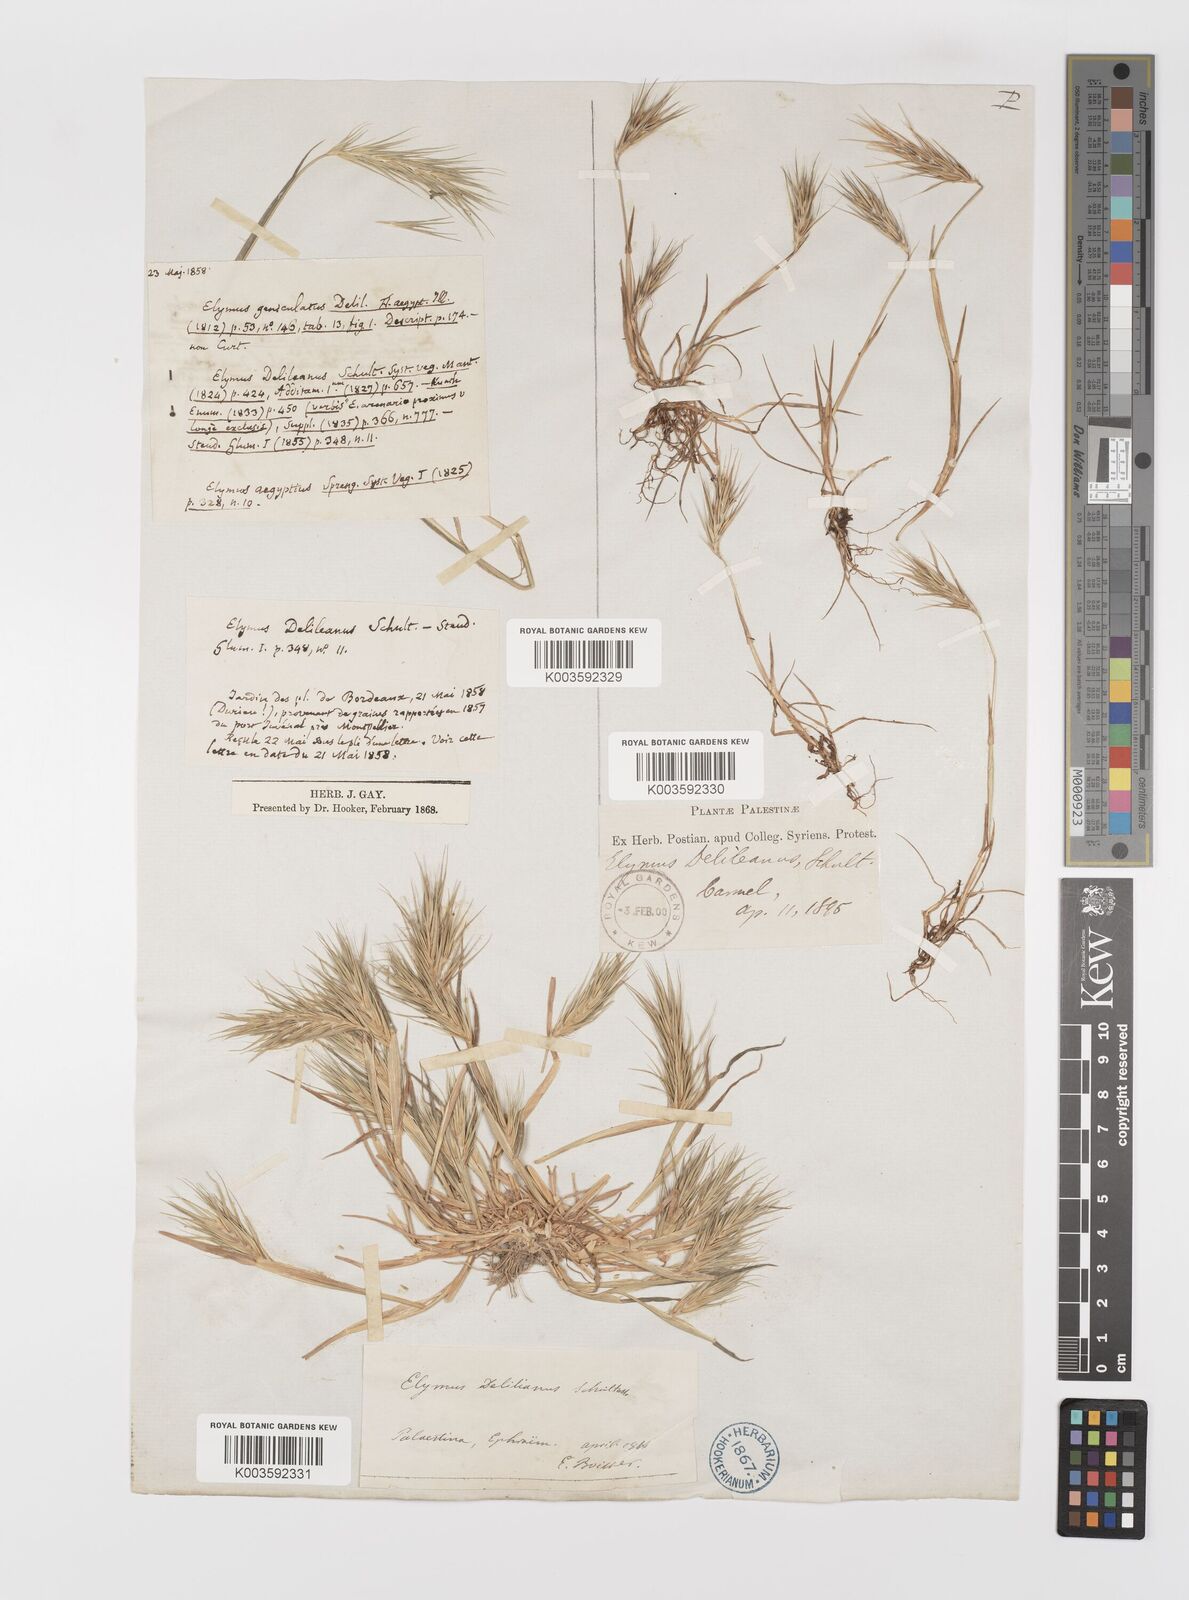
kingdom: Plantae
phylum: Tracheophyta
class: Liliopsida
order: Poales
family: Poaceae
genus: Crithopsis
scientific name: Crithopsis delileana
